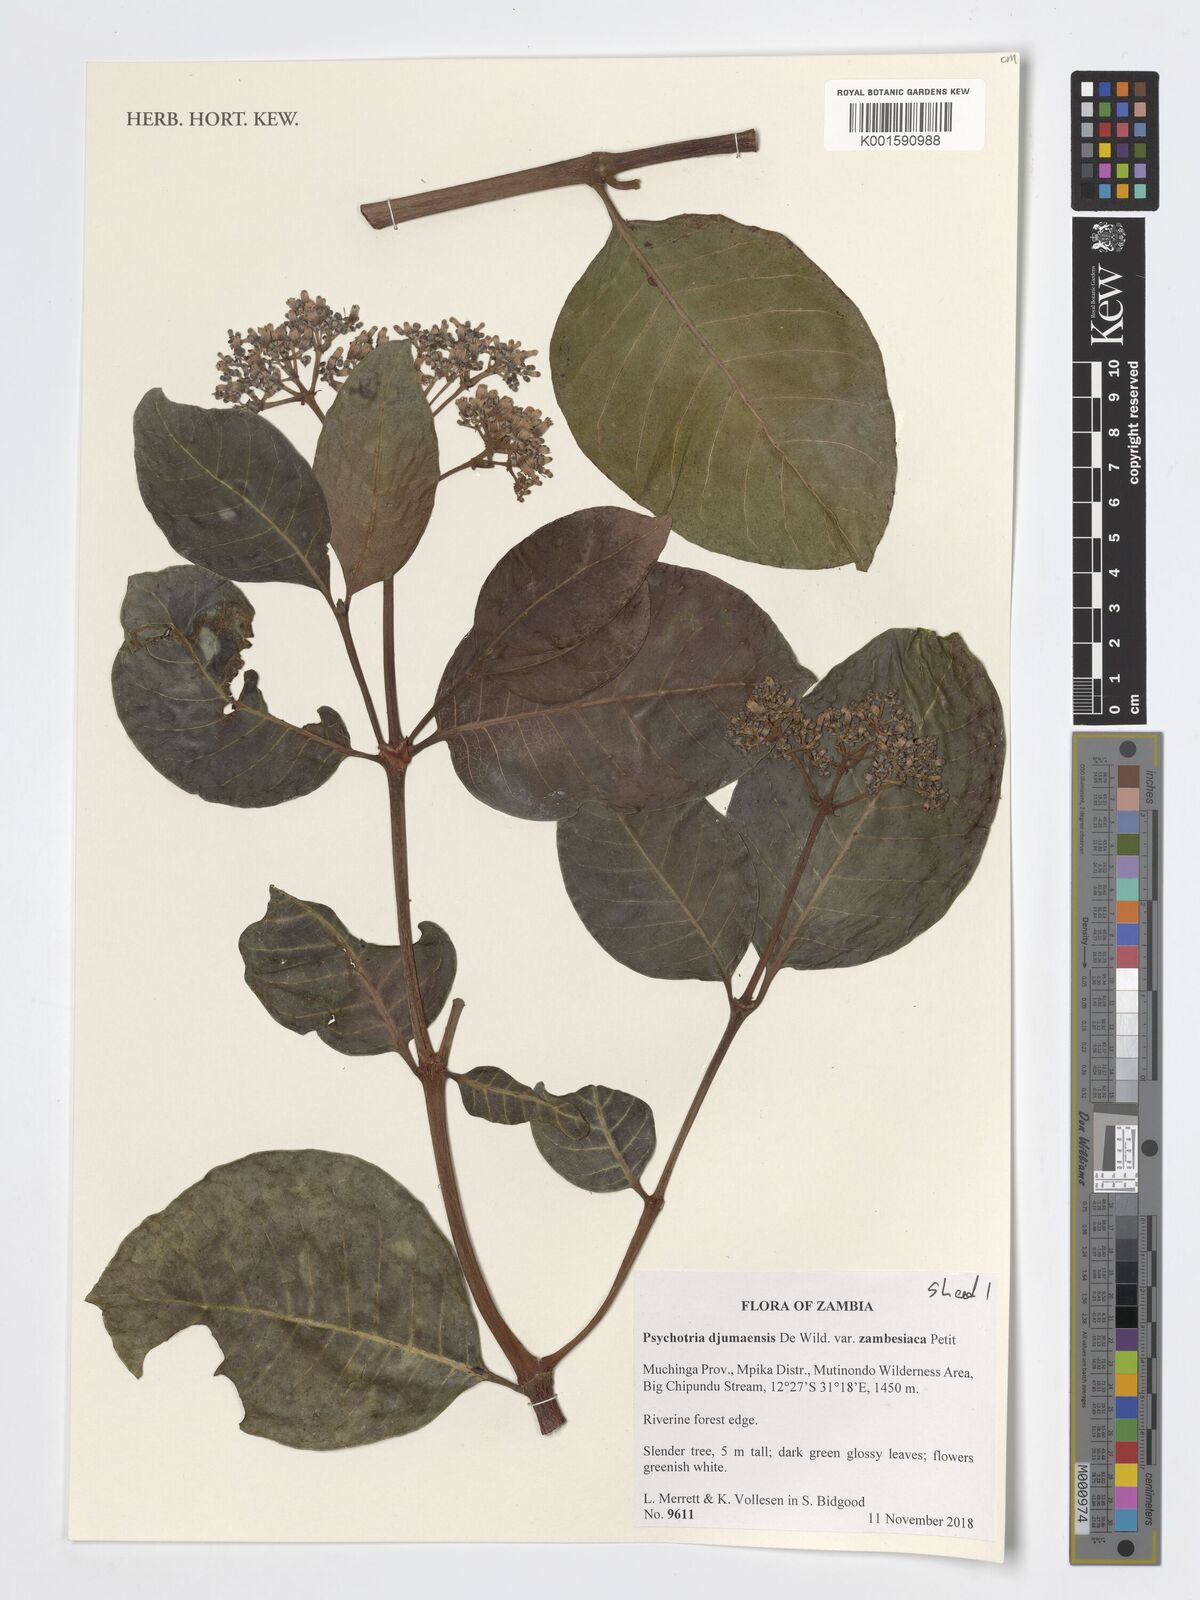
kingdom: Plantae
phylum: Tracheophyta
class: Magnoliopsida
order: Gentianales
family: Rubiaceae
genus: Psychotria
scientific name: Psychotria djumaensis
